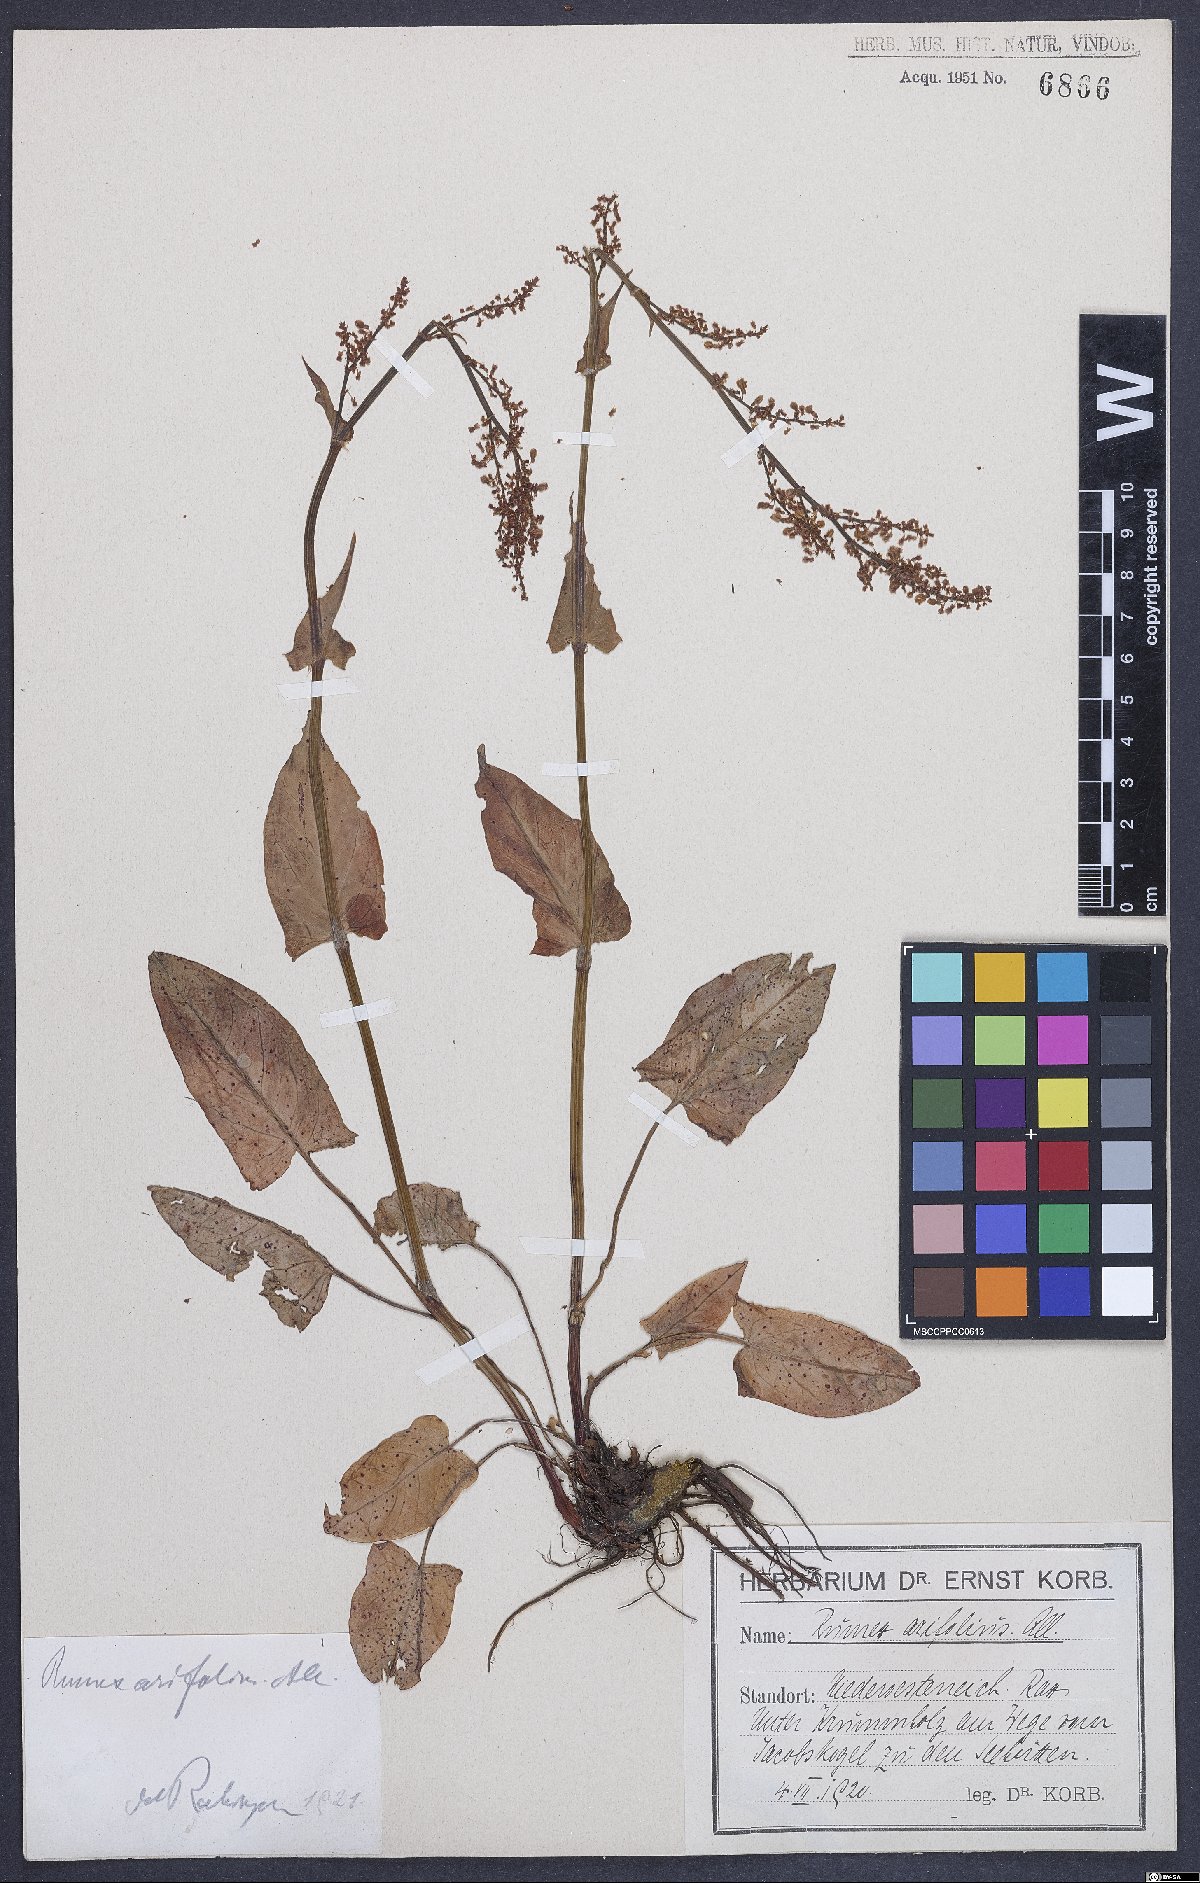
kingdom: Plantae
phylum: Tracheophyta
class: Magnoliopsida
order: Caryophyllales
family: Polygonaceae
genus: Rumex
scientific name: Rumex arifolius
